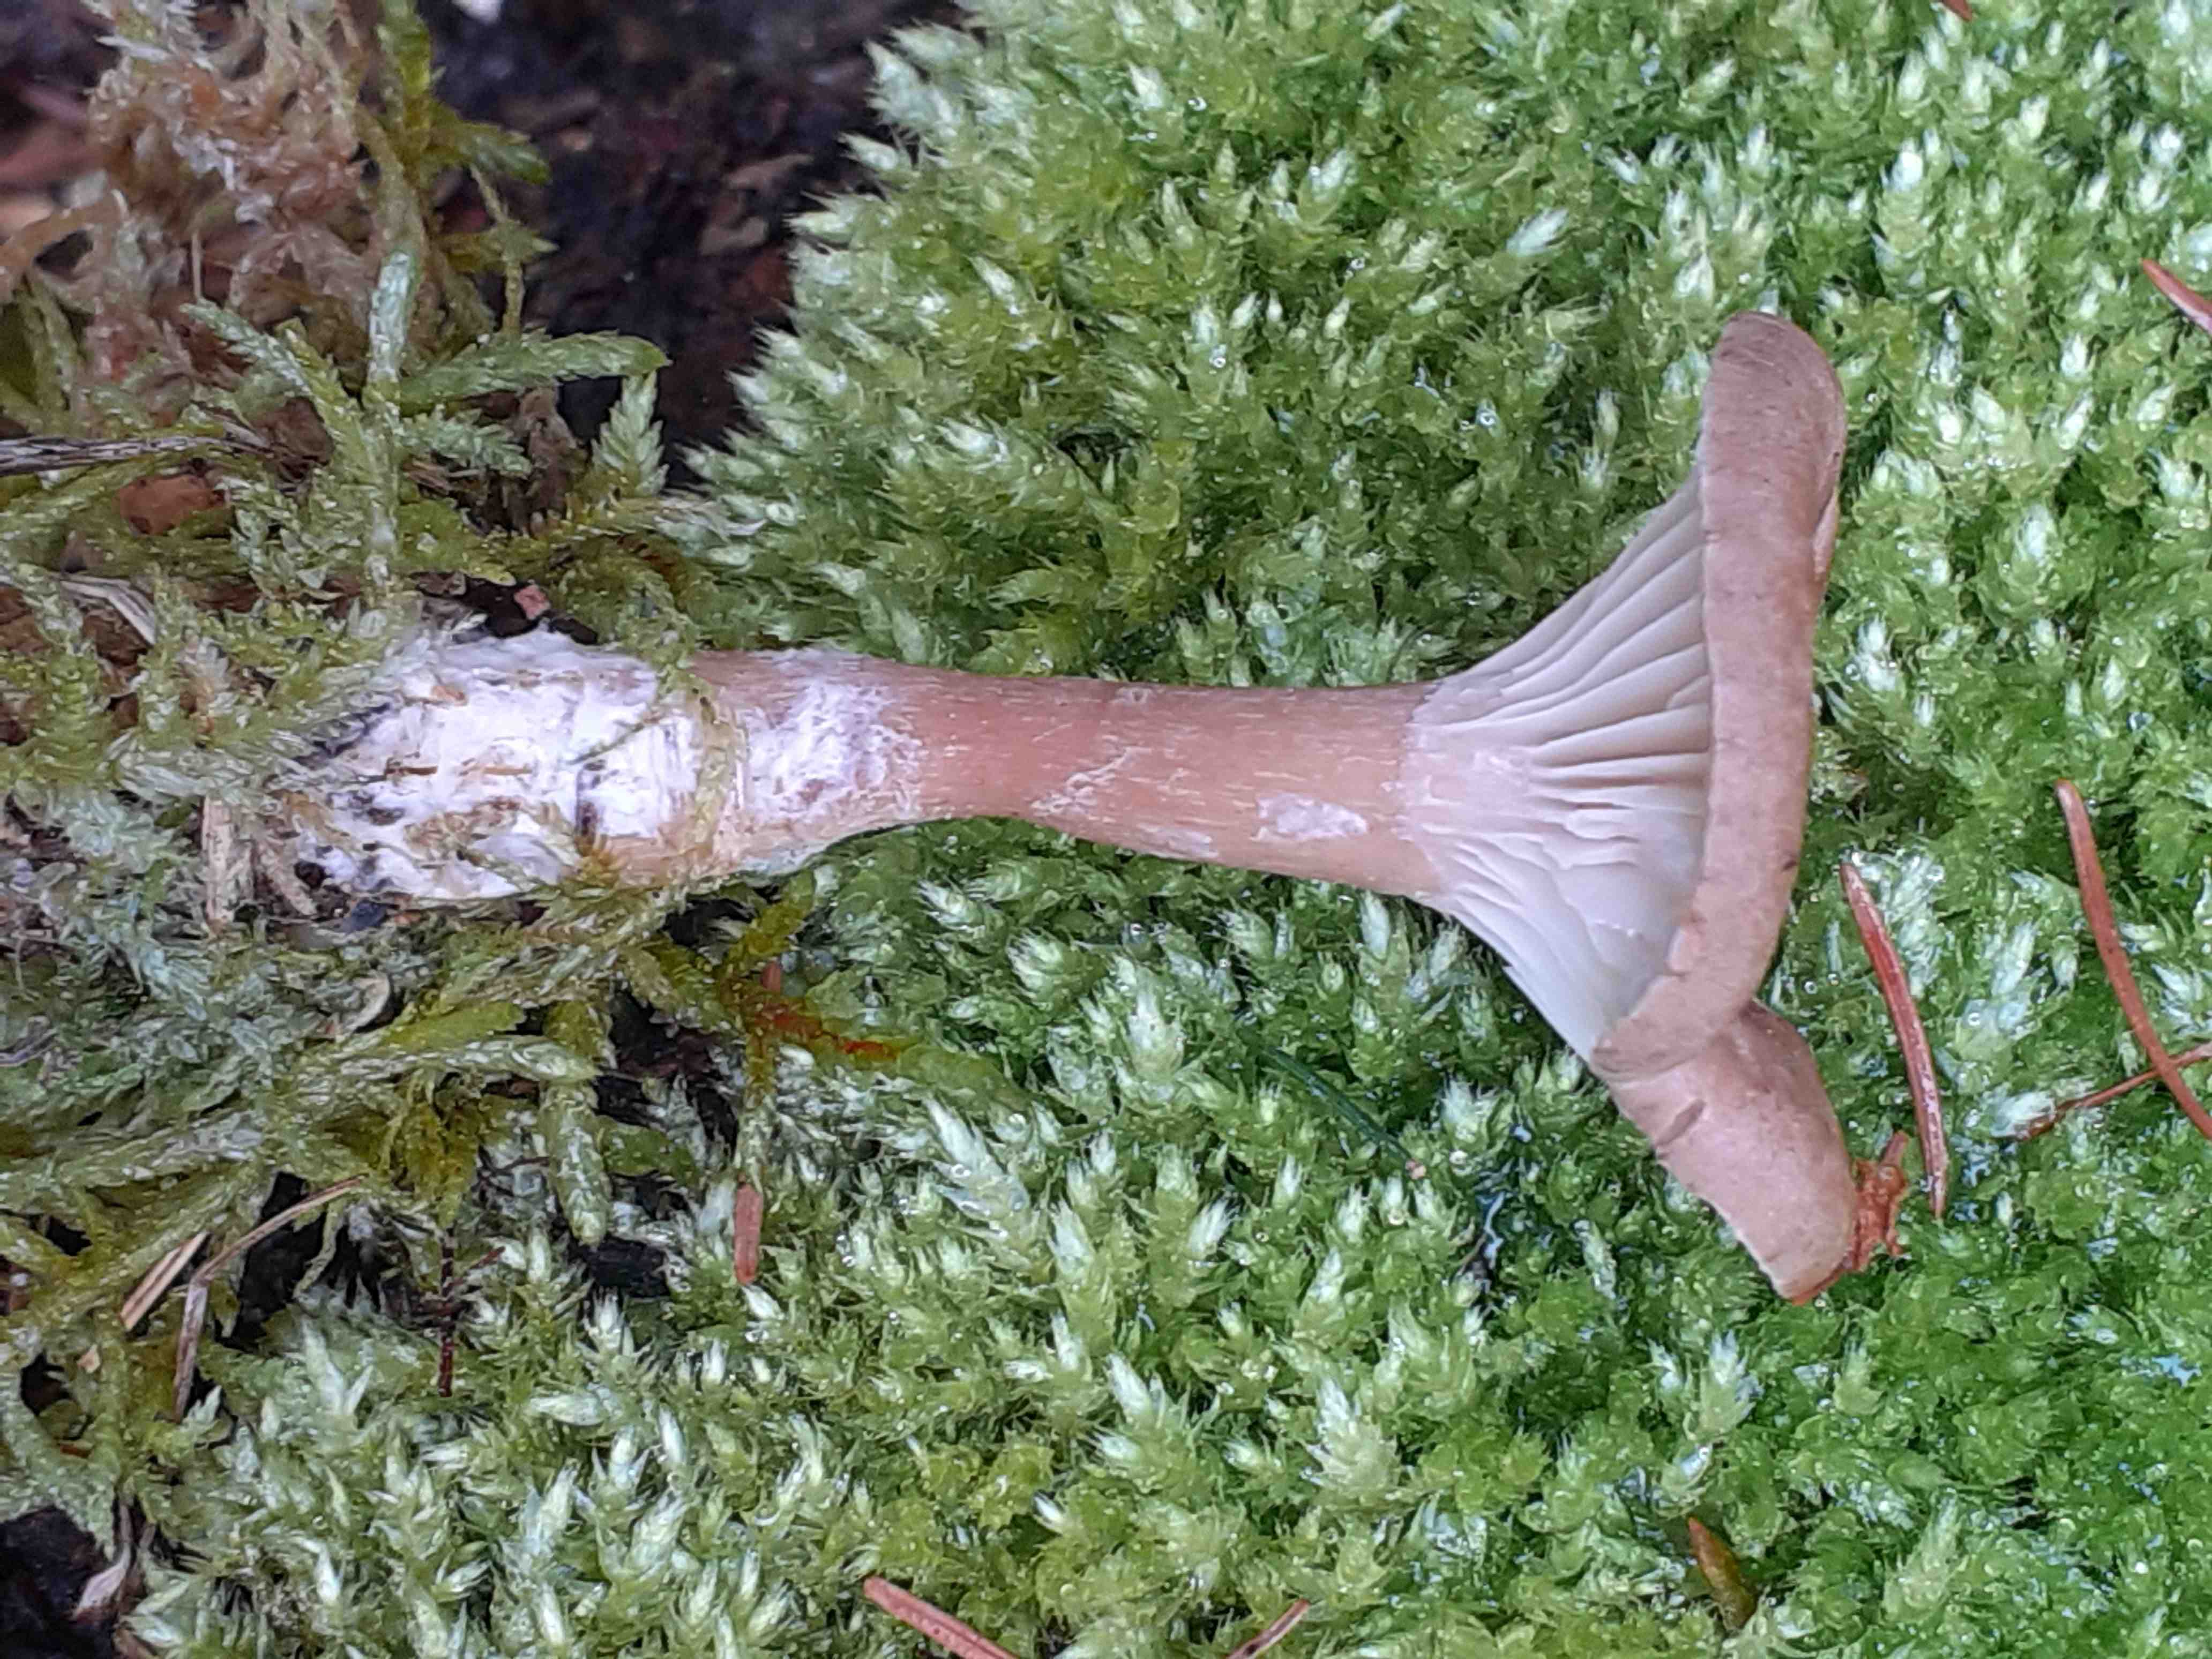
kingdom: Fungi
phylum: Basidiomycota
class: Agaricomycetes
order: Agaricales
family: Tricholomataceae
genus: Clitocybe
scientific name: Clitocybe costata
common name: brunstokket tragthat
